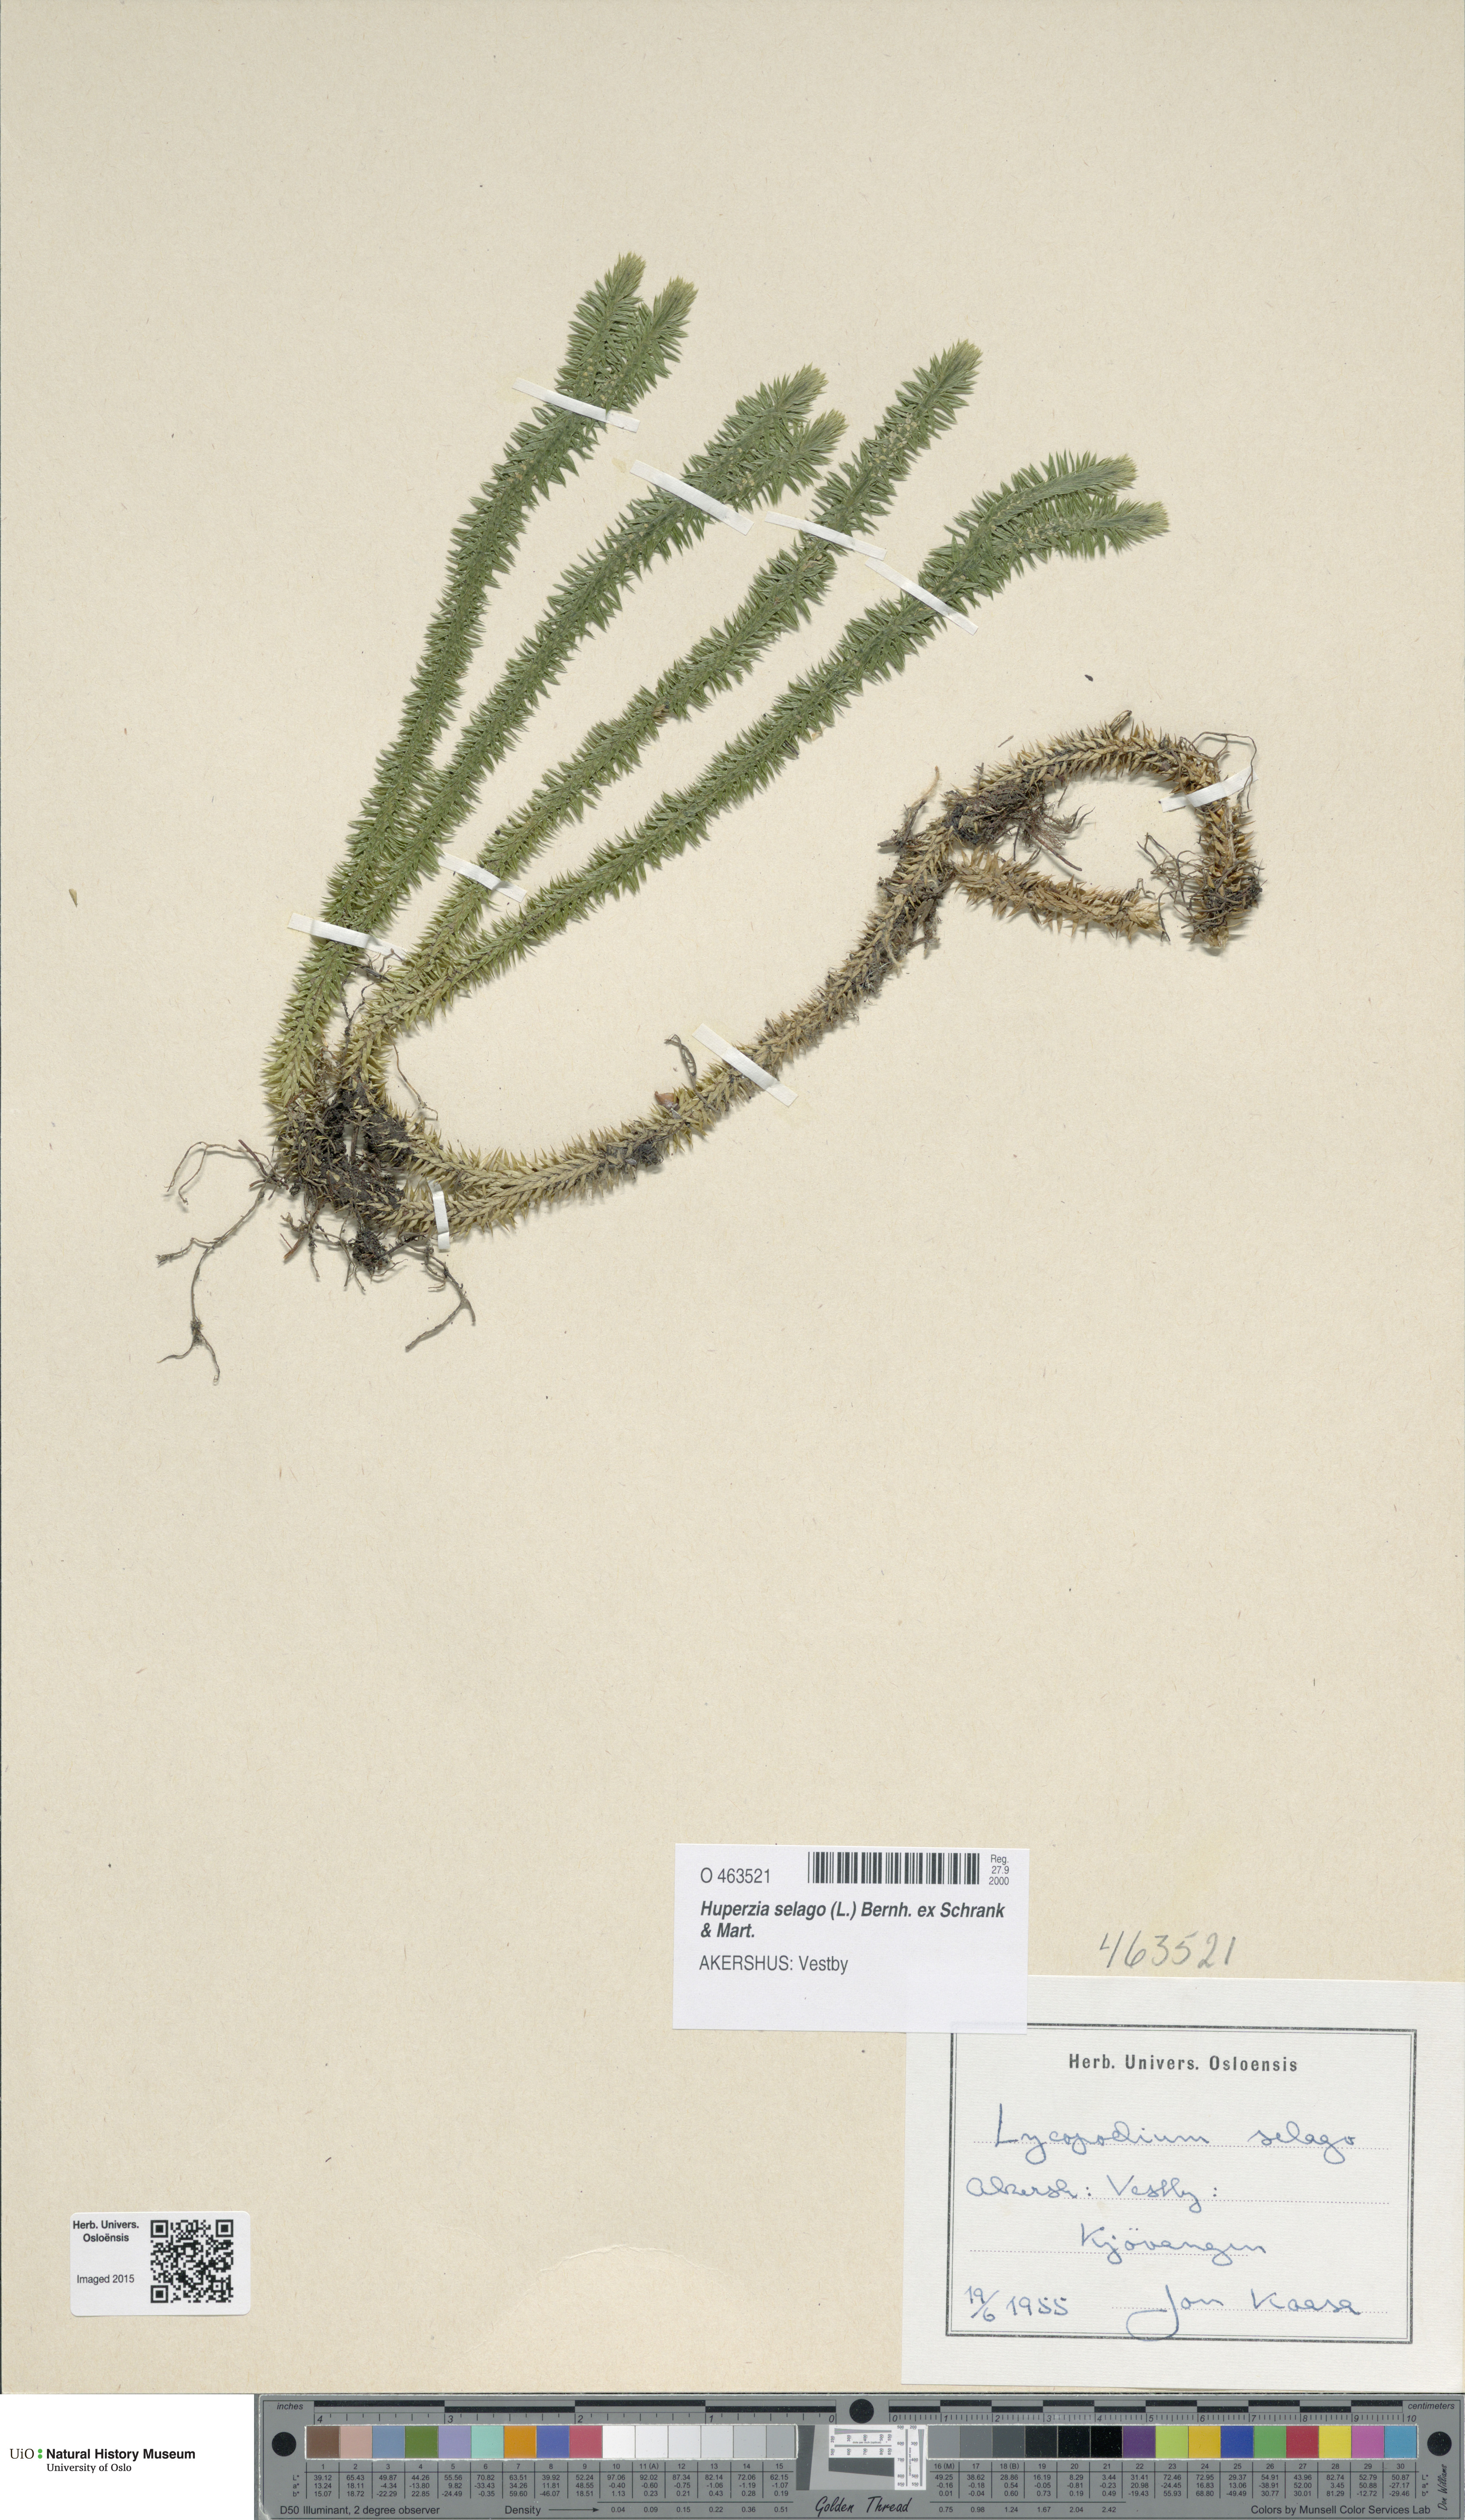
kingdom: Plantae
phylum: Tracheophyta
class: Lycopodiopsida
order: Lycopodiales
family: Lycopodiaceae
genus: Huperzia
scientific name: Huperzia selago
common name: Northern firmoss
